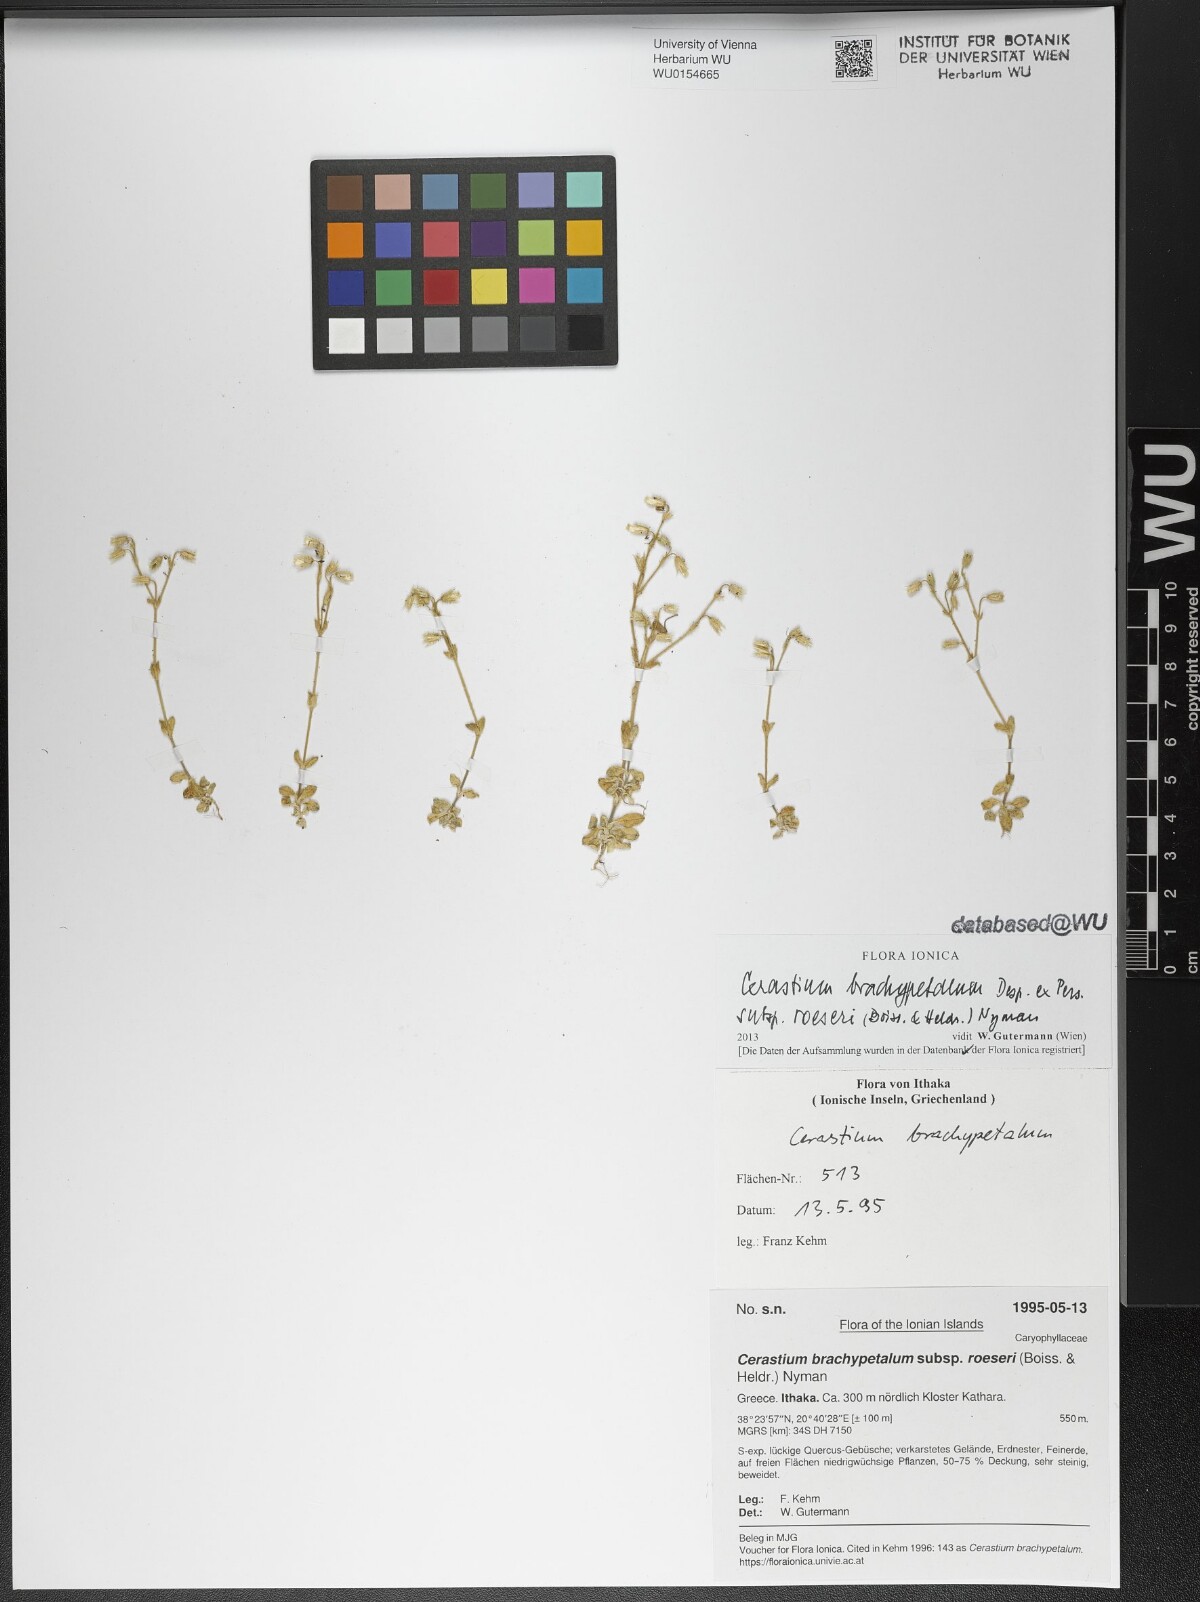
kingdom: Plantae
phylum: Tracheophyta
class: Magnoliopsida
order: Caryophyllales
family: Caryophyllaceae
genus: Cerastium
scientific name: Cerastium brachypetalum
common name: Grey mouse-ear
